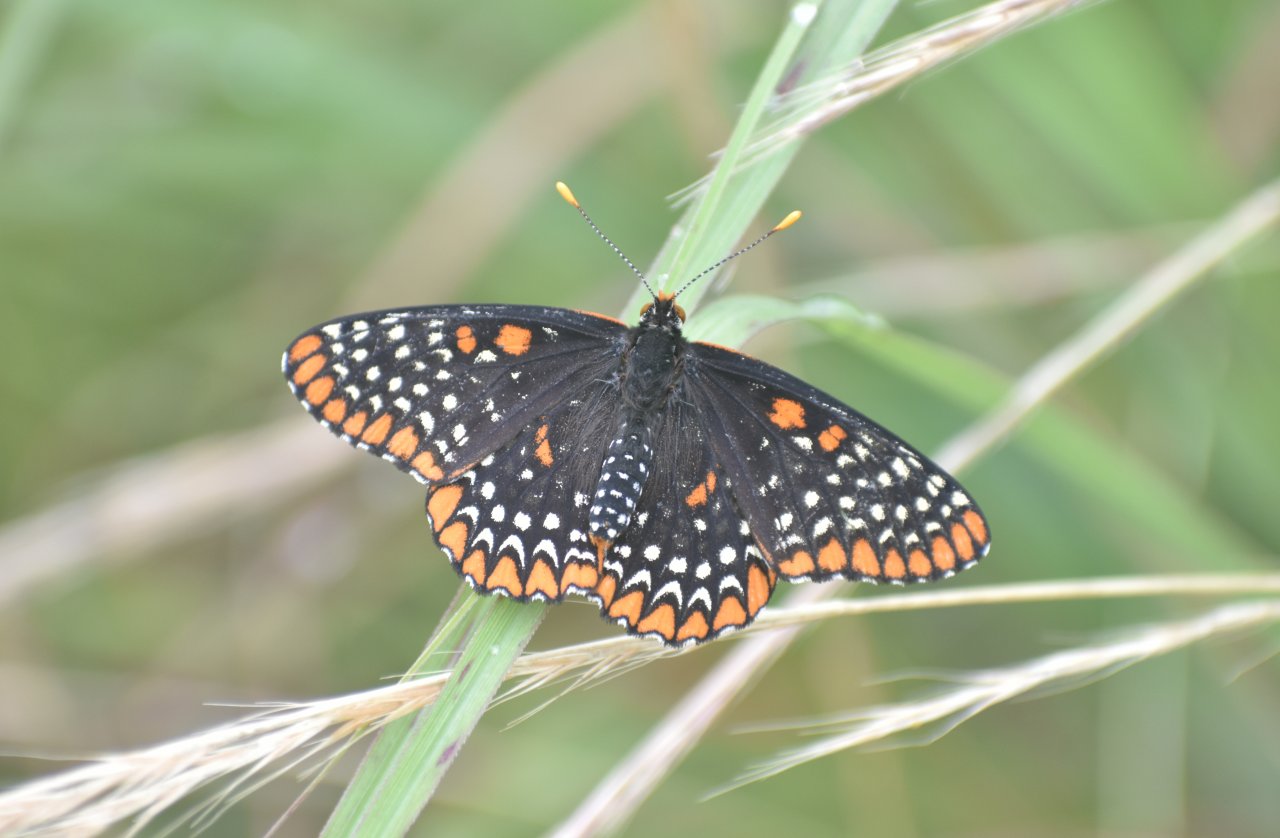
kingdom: Animalia
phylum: Arthropoda
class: Insecta
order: Lepidoptera
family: Nymphalidae
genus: Euphydryas
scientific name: Euphydryas phaeton
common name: Baltimore Checkerspot
